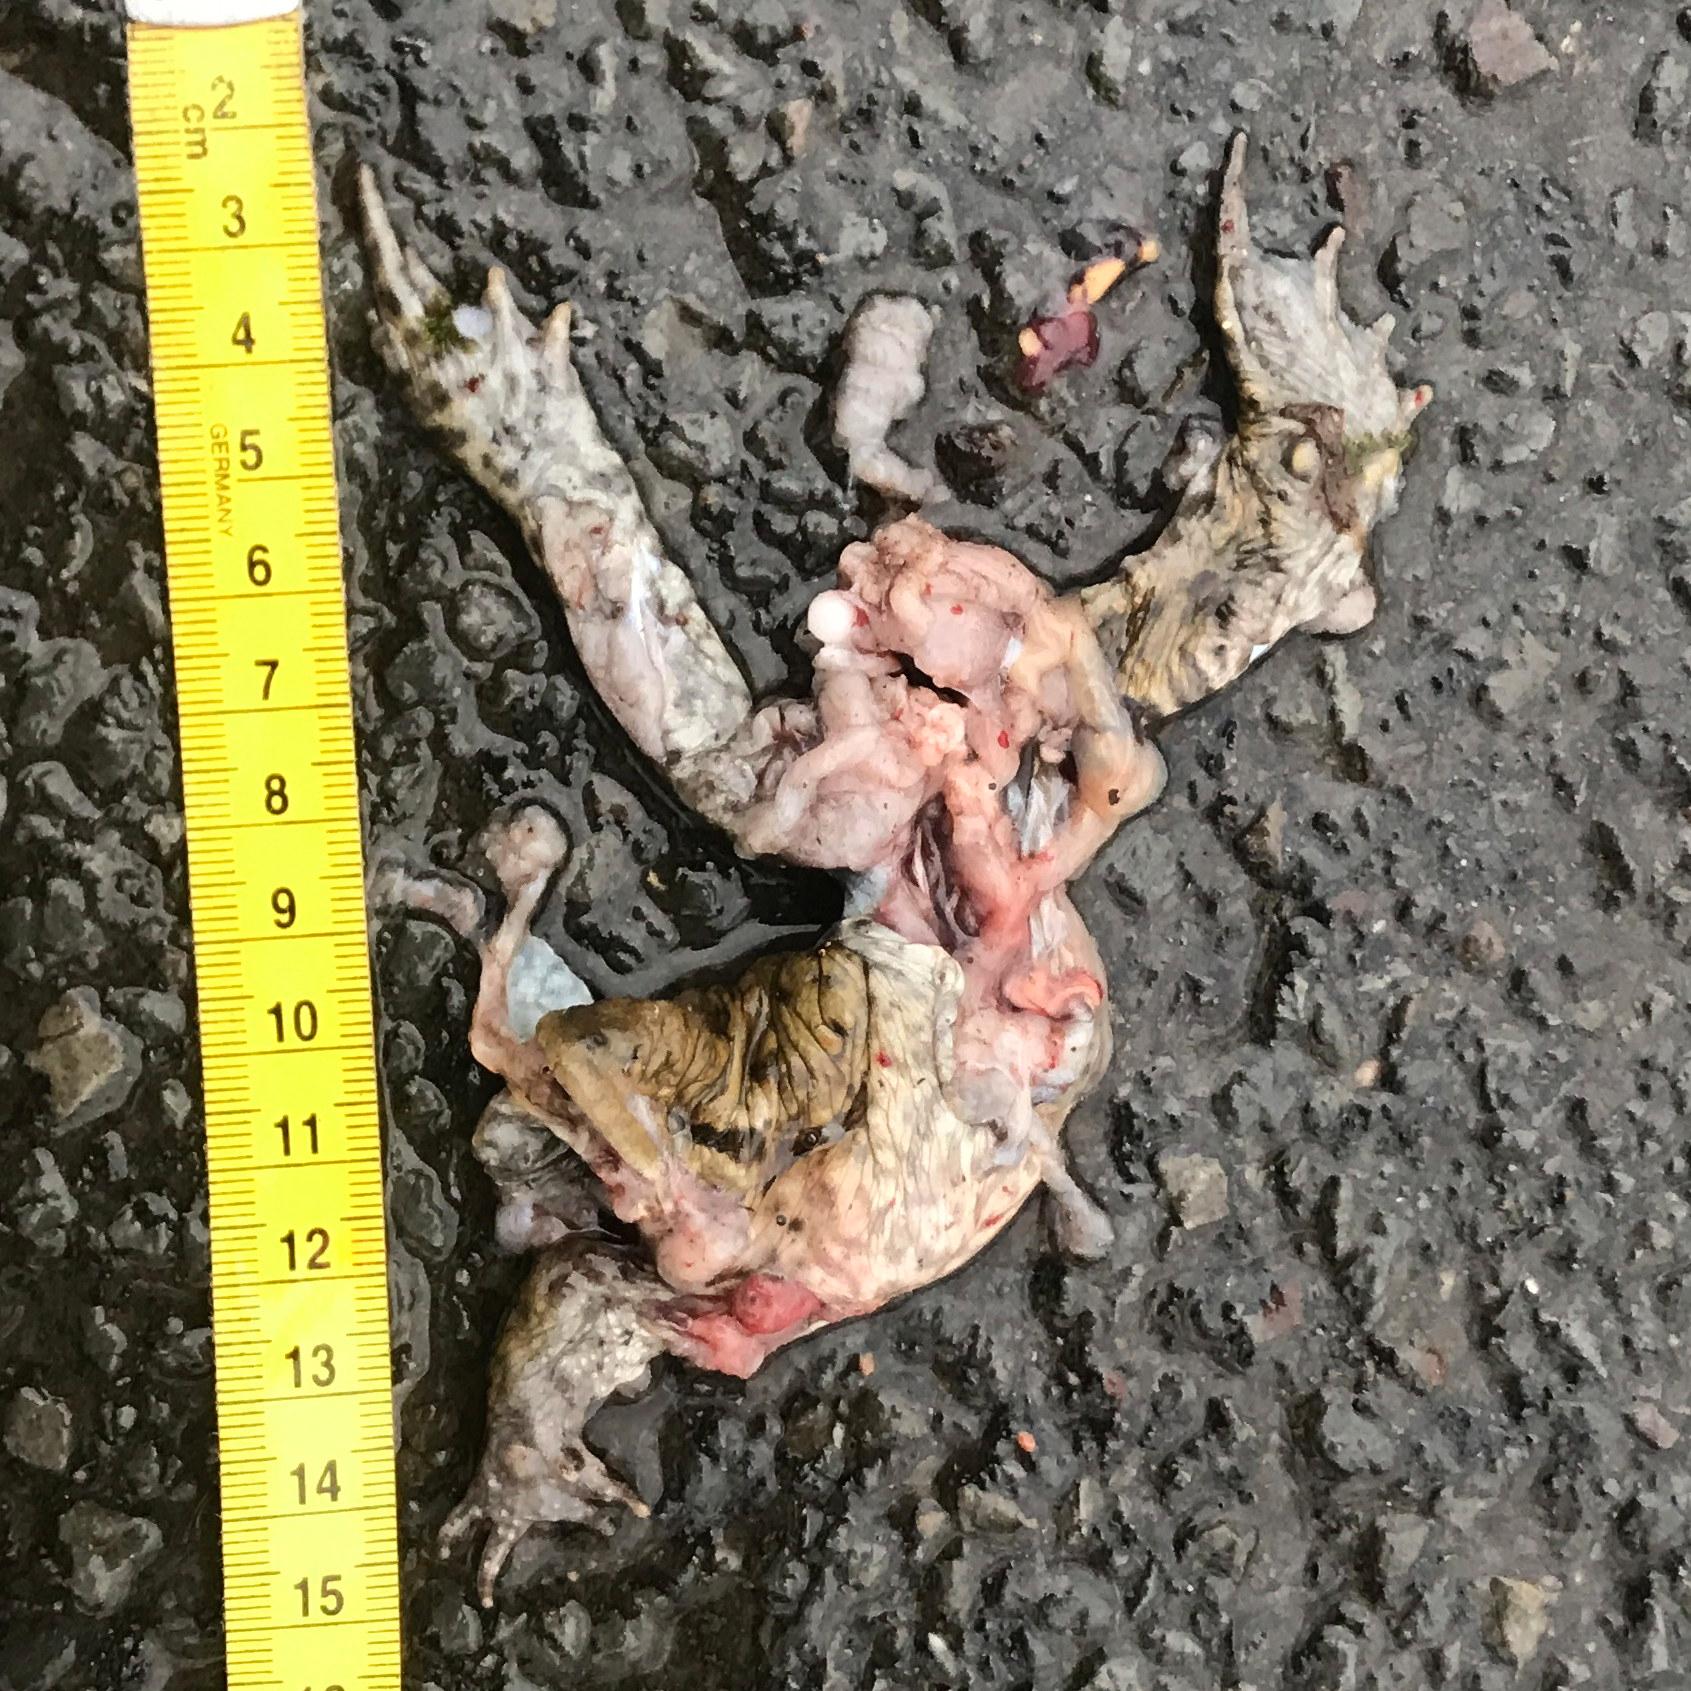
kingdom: Animalia
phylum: Chordata
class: Amphibia
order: Anura
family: Bufonidae
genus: Bufo
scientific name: Bufo bufo
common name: Common toad
